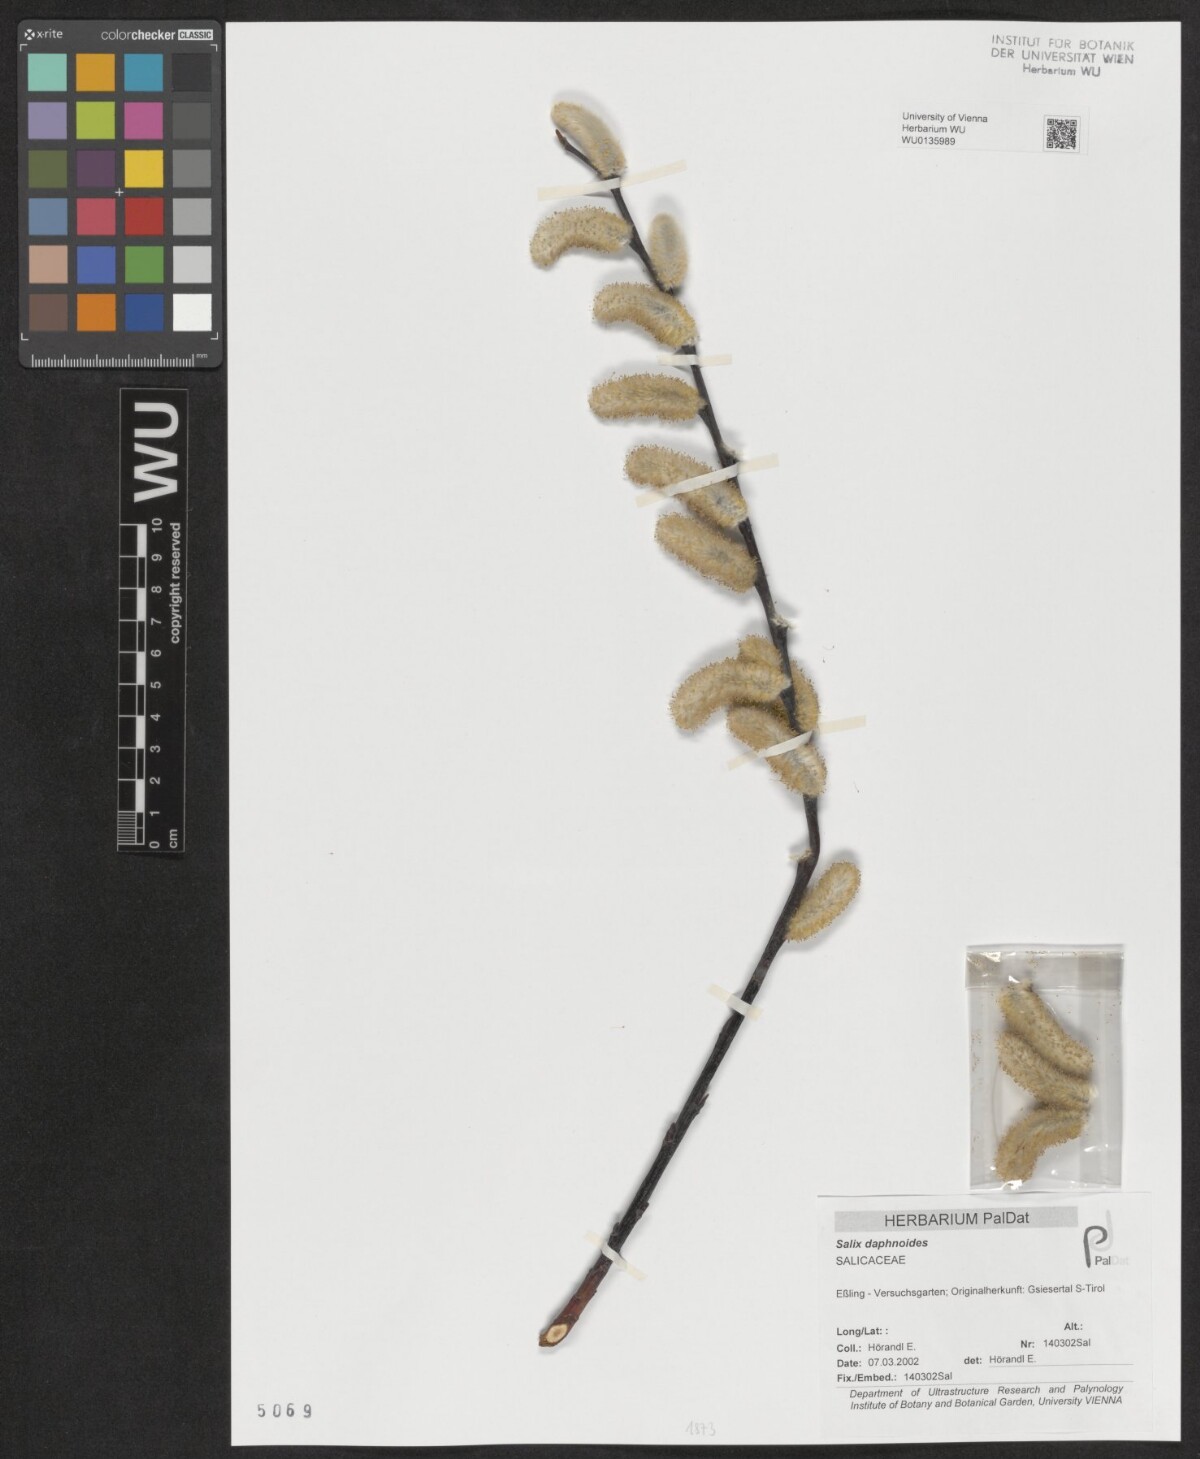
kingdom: Plantae
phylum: Tracheophyta
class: Magnoliopsida
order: Malpighiales
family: Salicaceae
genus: Salix
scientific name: Salix daphnoides
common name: European violet-willow
